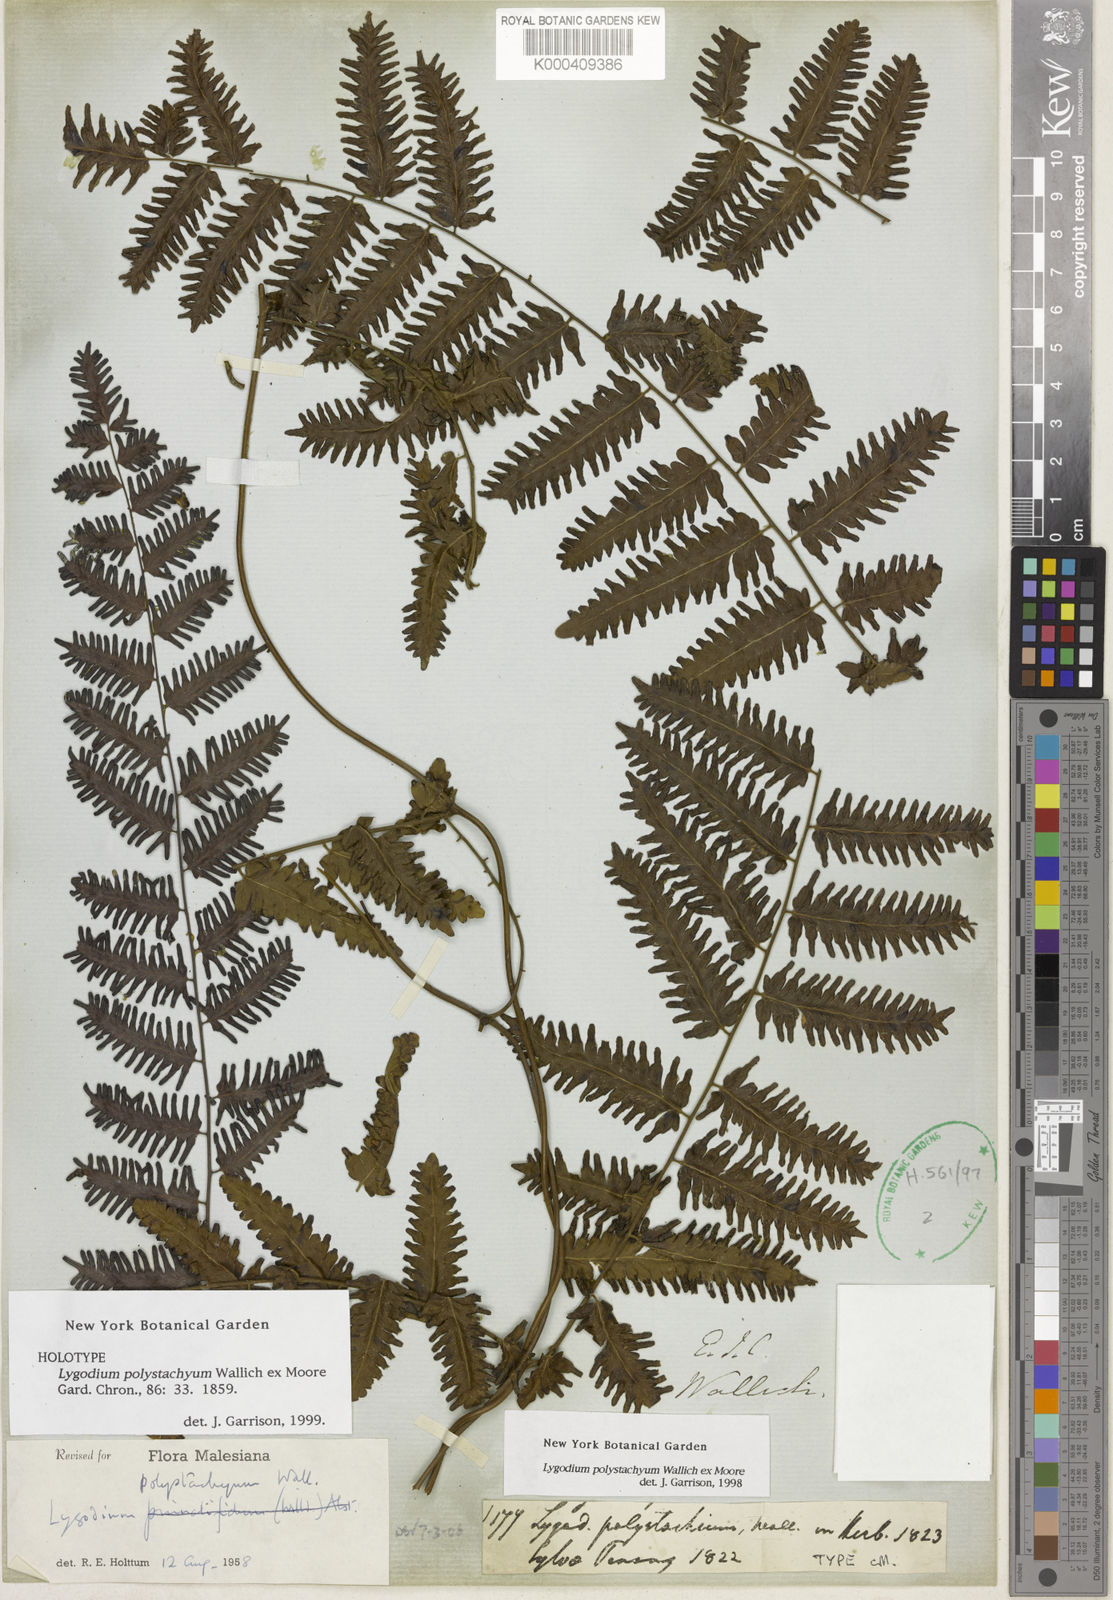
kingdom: Plantae
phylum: Tracheophyta
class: Polypodiopsida
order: Schizaeales
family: Lygodiaceae
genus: Lygodium
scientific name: Lygodium polystachyum
